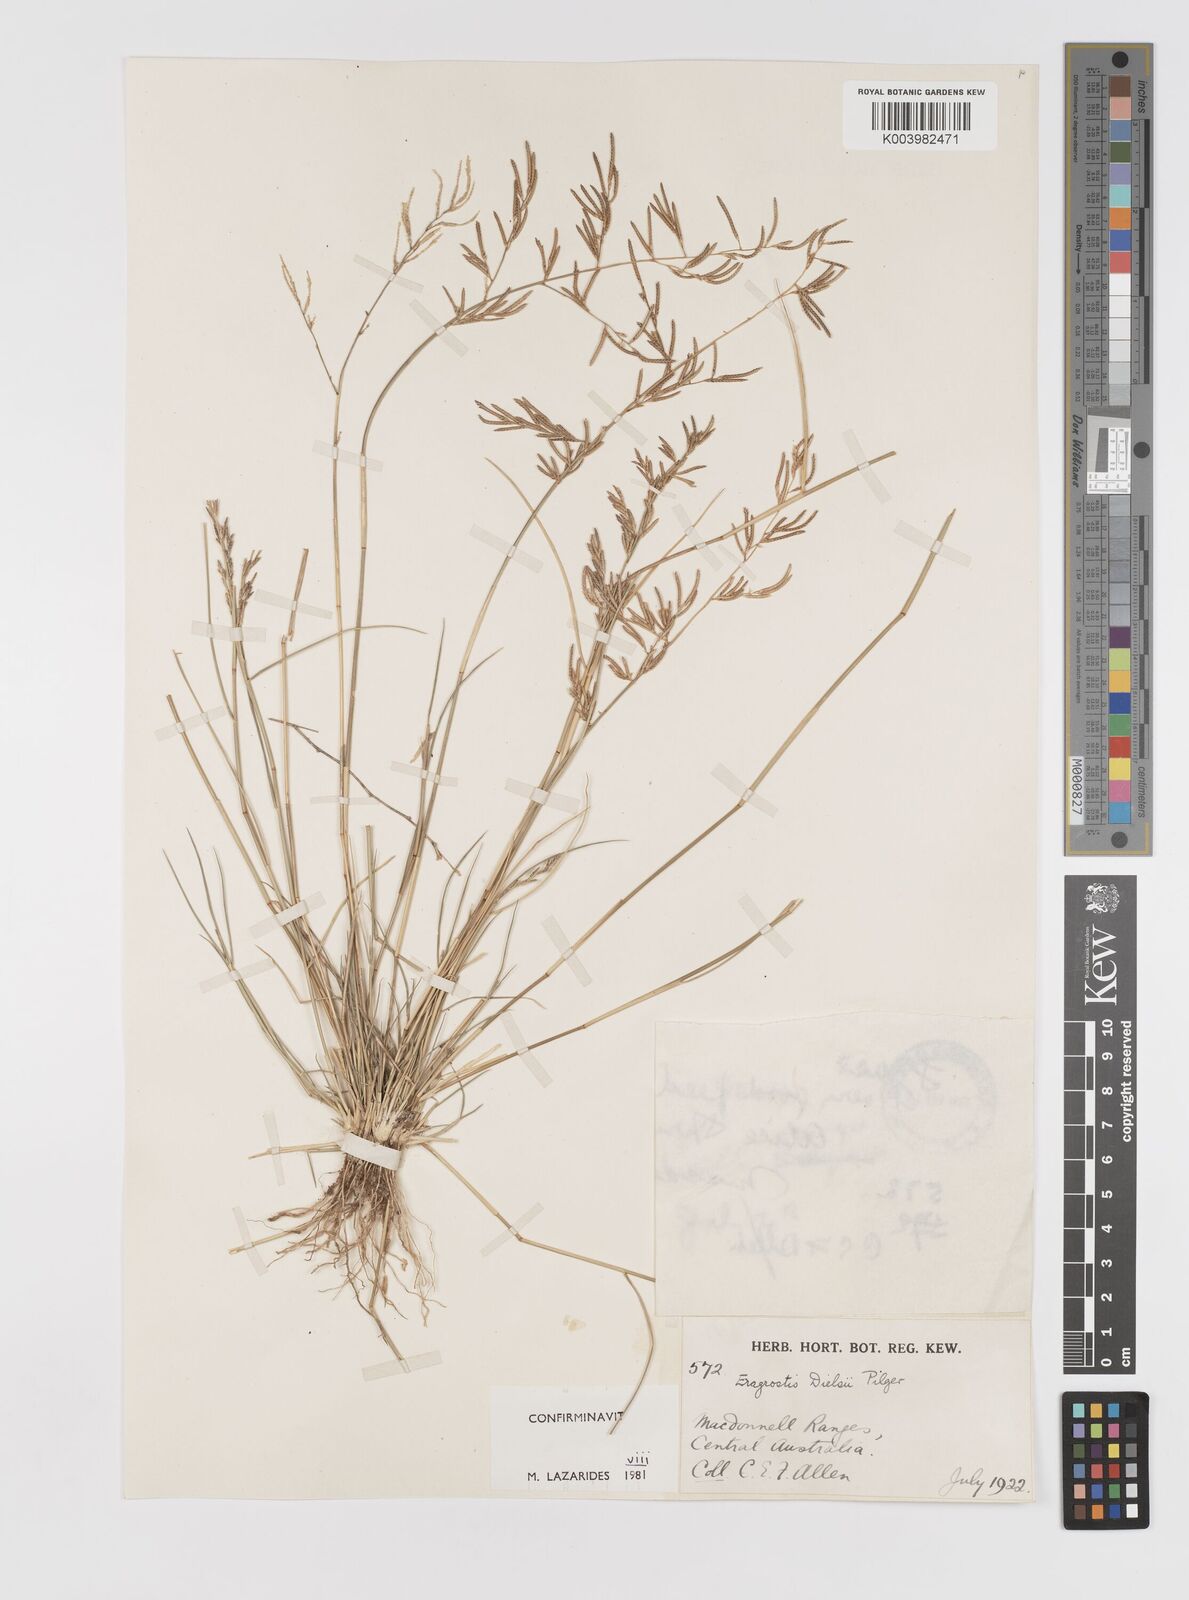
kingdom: Plantae
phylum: Tracheophyta
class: Liliopsida
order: Poales
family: Poaceae
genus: Eragrostis
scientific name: Eragrostis dielsii
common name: Lovegrass
